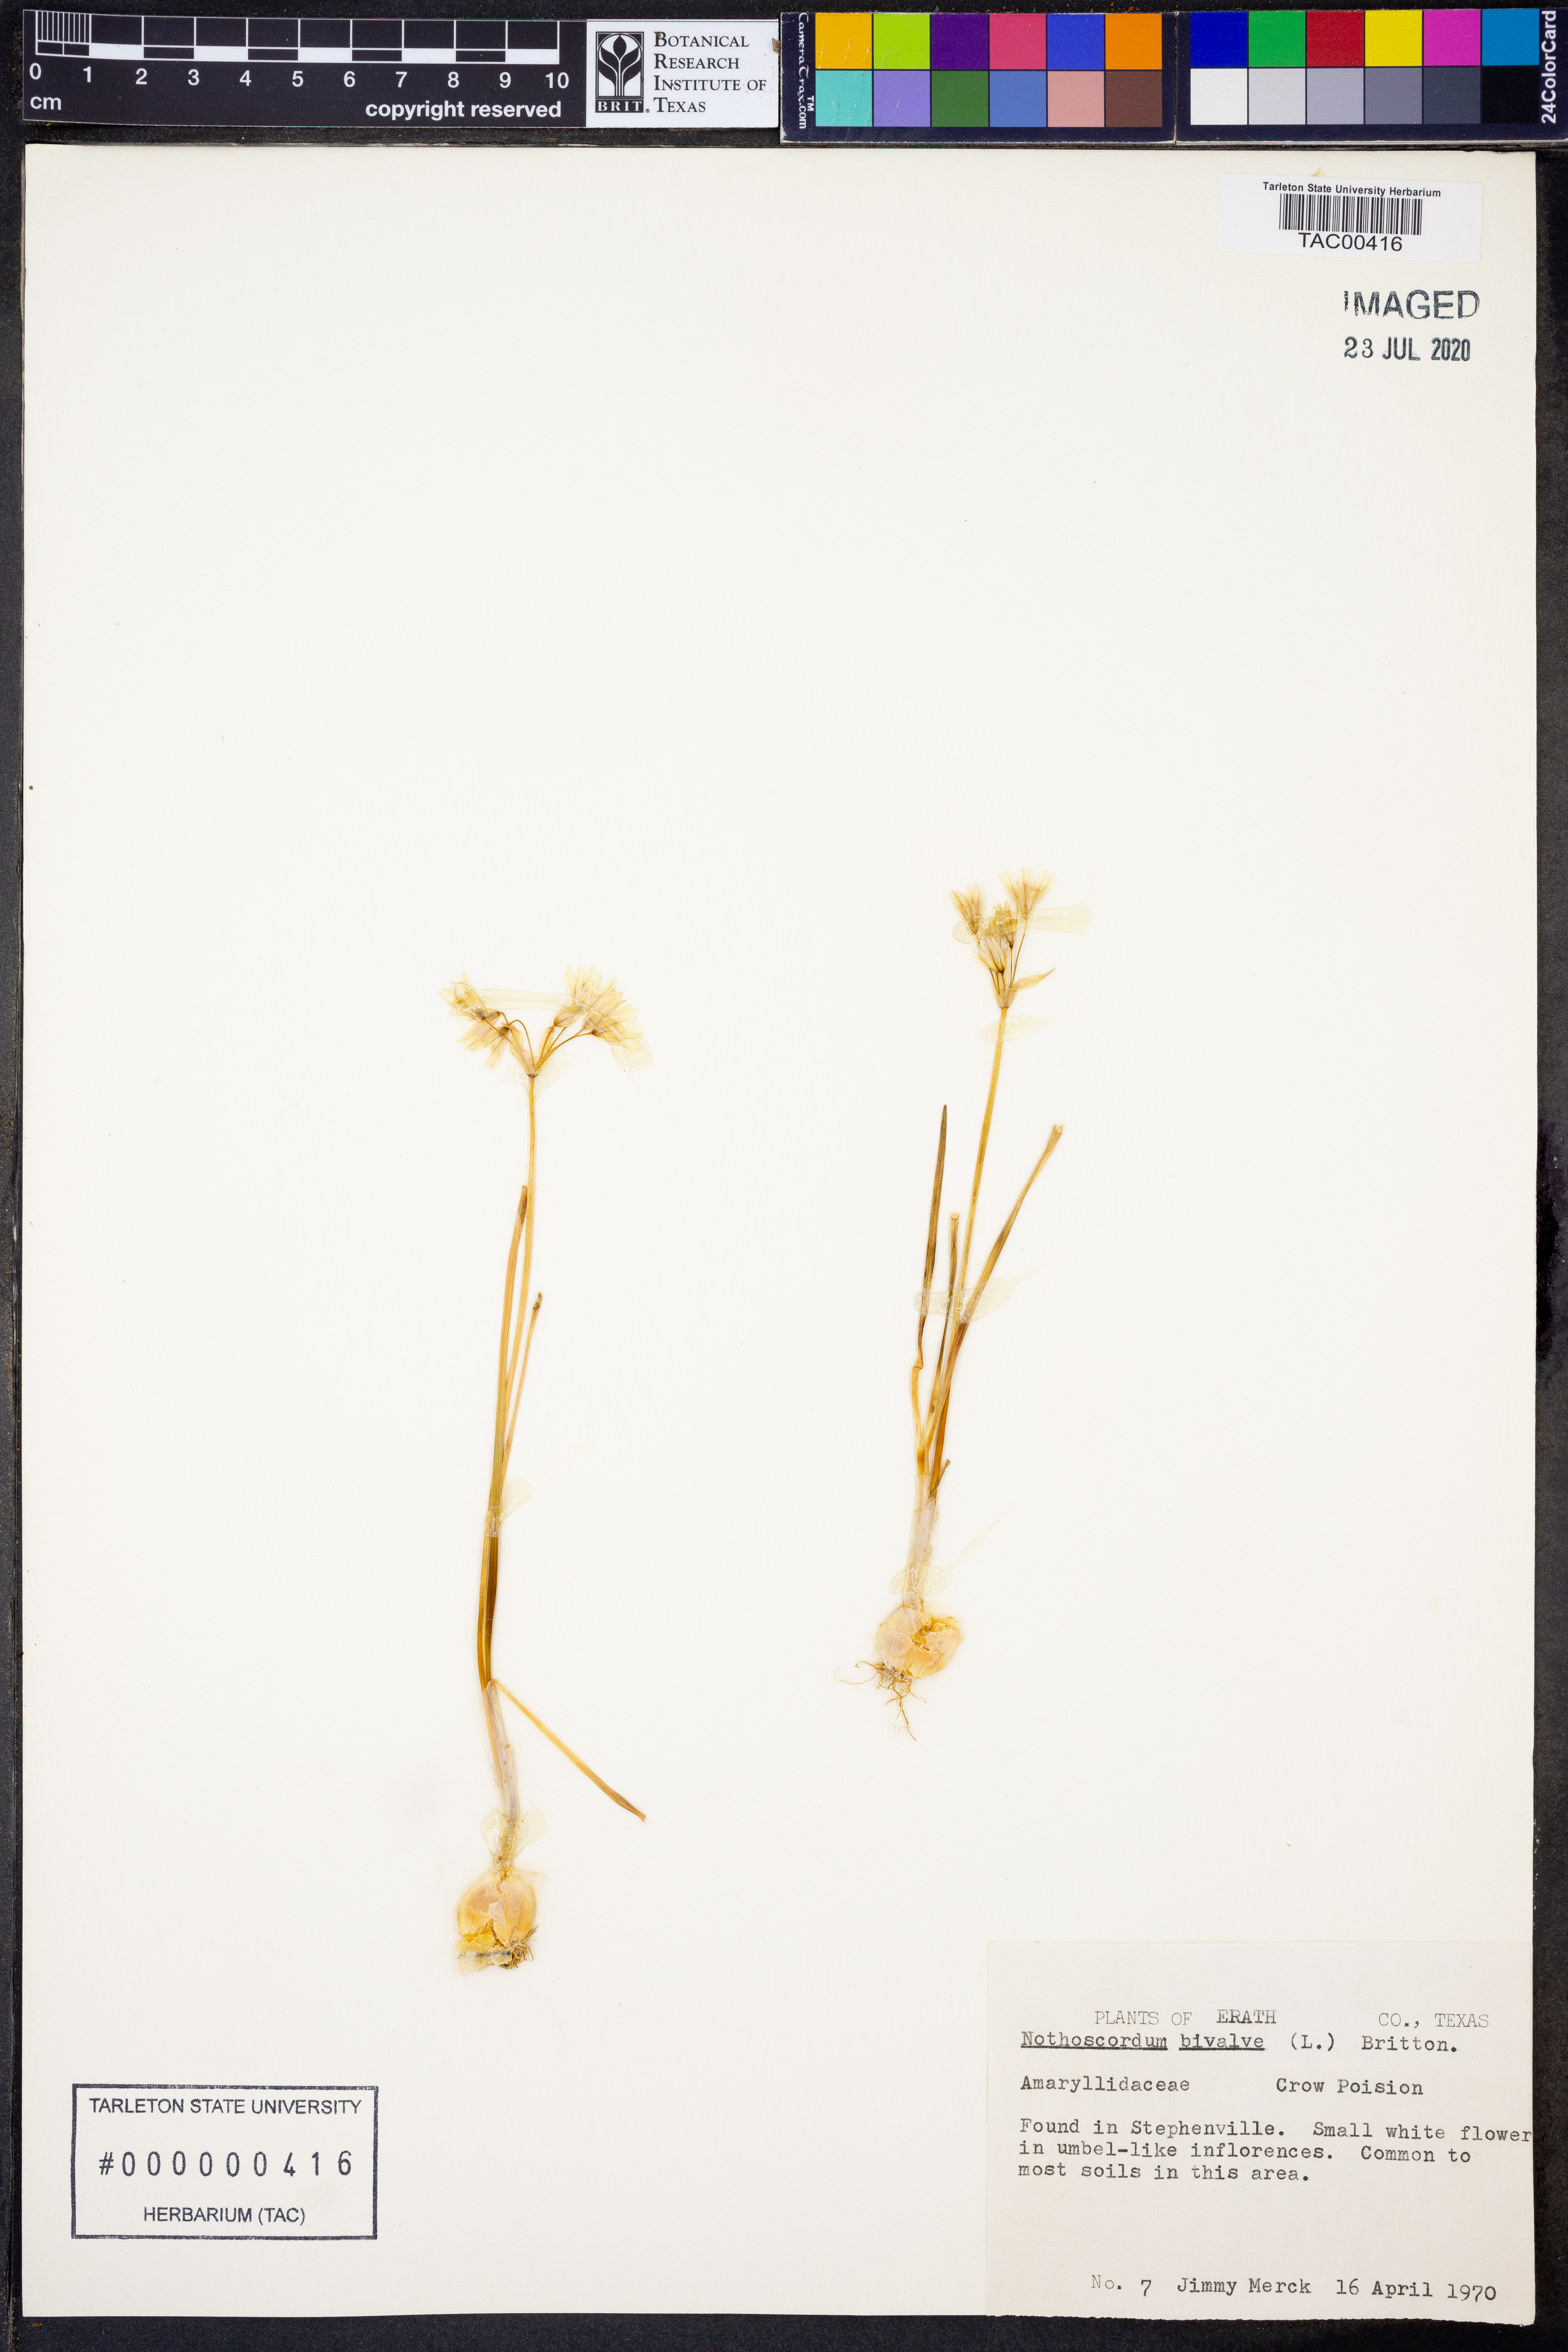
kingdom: Plantae
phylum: Tracheophyta
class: Liliopsida
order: Asparagales
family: Amaryllidaceae
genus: Nothoscordum
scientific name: Nothoscordum bivalve
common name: Crow-poison
